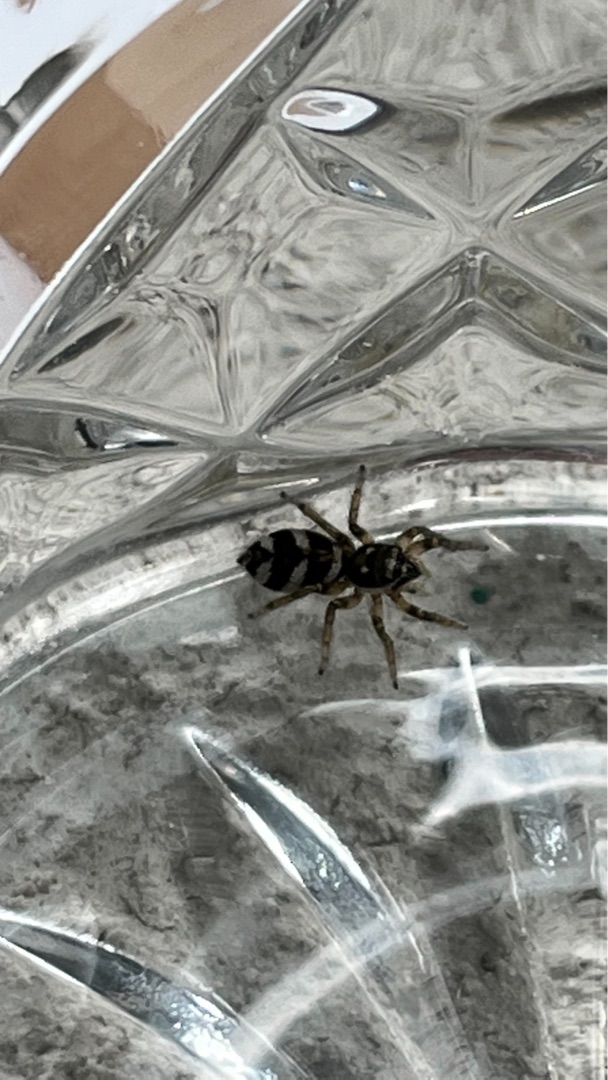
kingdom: Animalia
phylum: Arthropoda
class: Arachnida
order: Araneae
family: Salticidae
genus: Salticus
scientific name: Salticus scenicus
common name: Almindelig zebraedderkop
